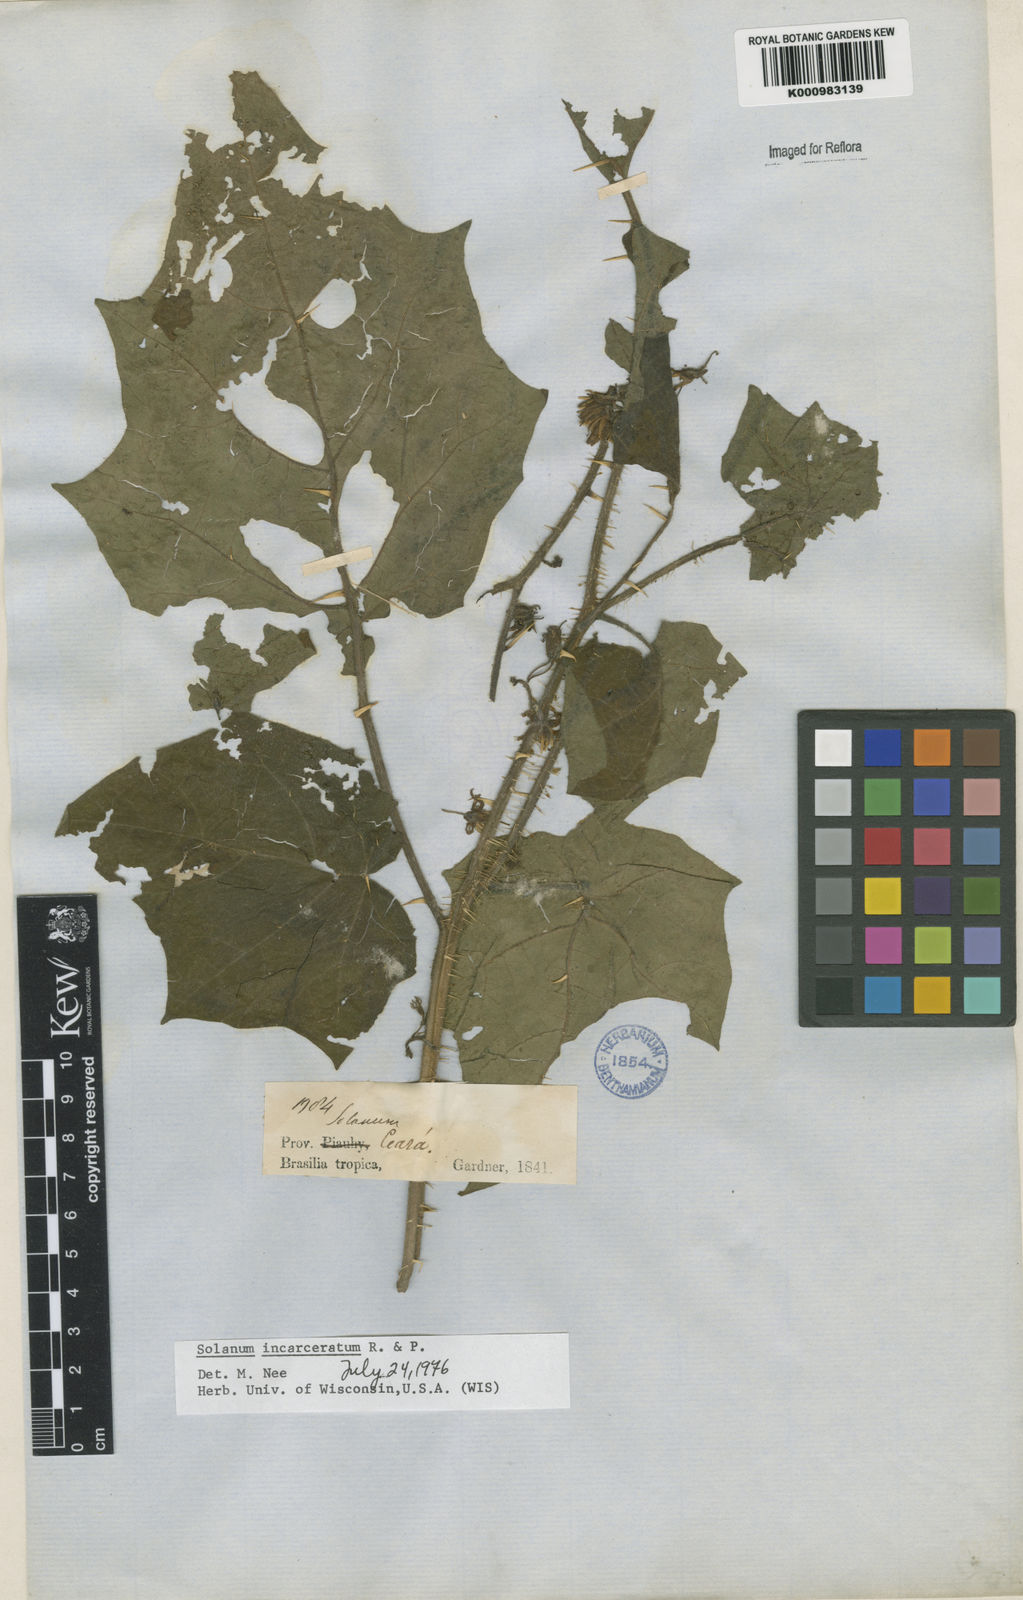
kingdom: Plantae
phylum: Tracheophyta
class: Magnoliopsida
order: Solanales
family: Solanaceae
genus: Solanum
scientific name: Solanum incarceratum
